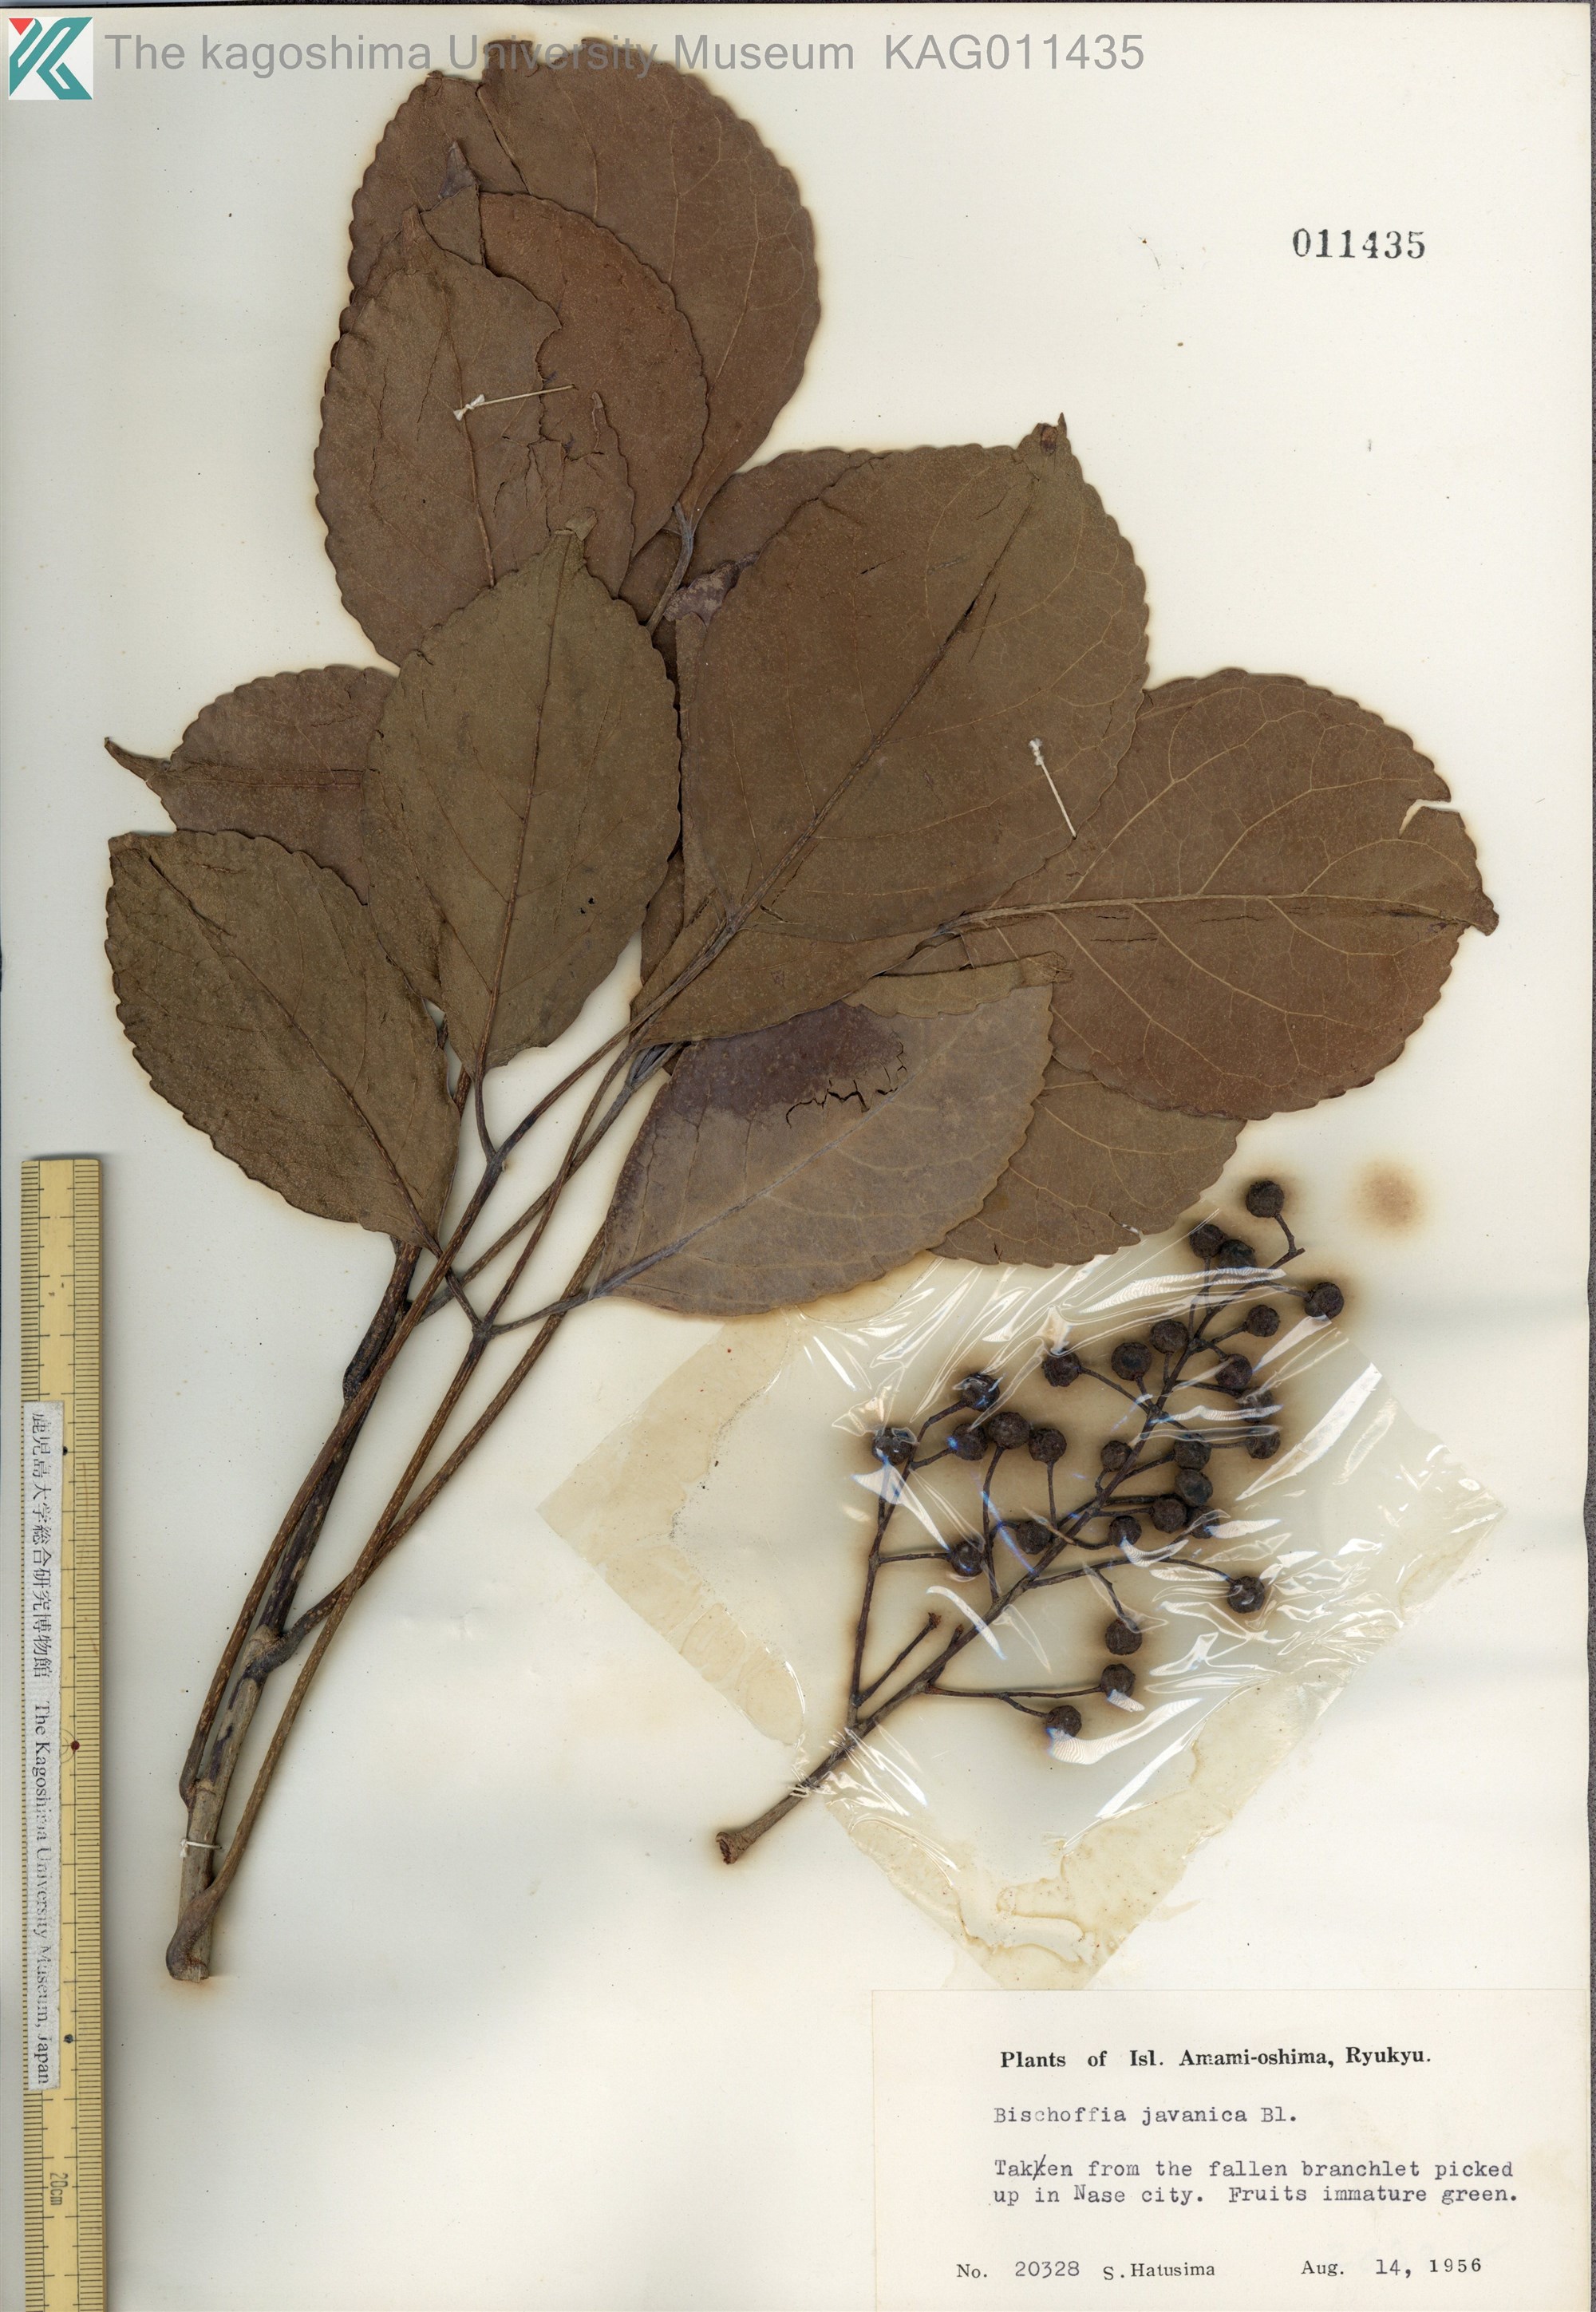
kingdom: Plantae
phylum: Tracheophyta
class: Magnoliopsida
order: Malpighiales
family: Phyllanthaceae
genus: Bischofia
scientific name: Bischofia javanica
